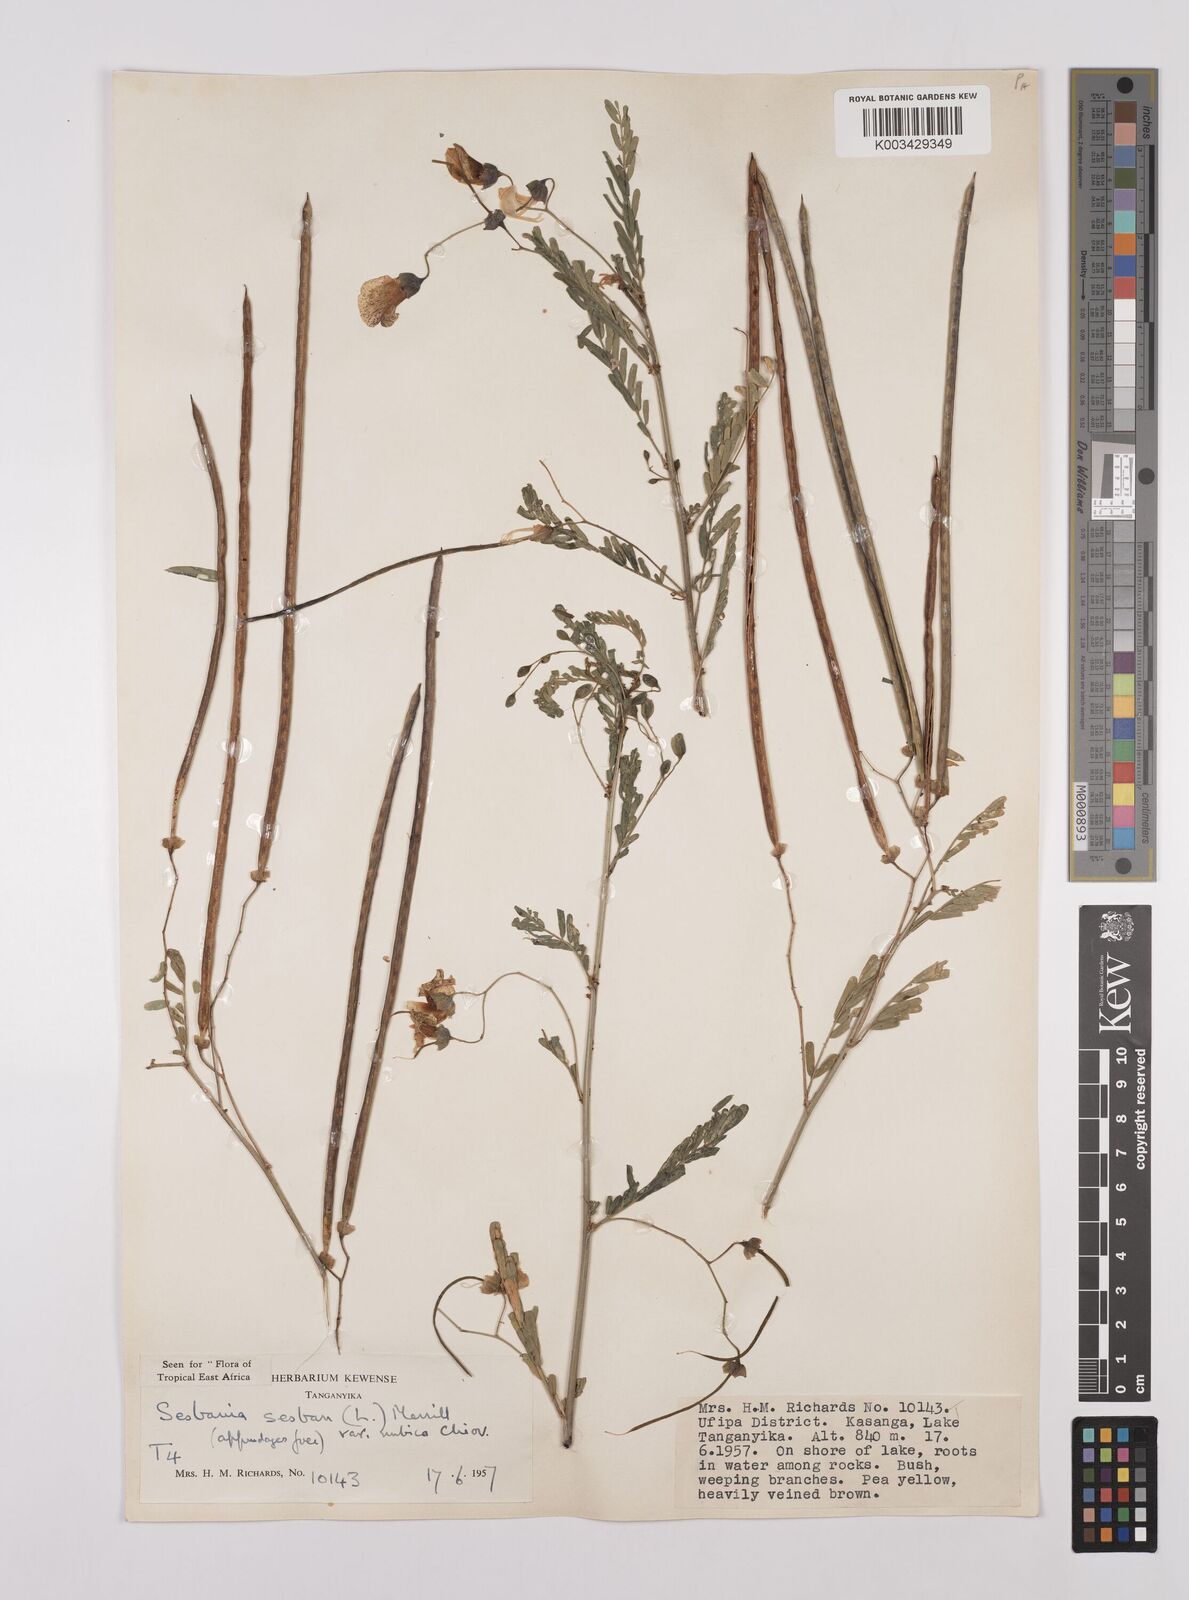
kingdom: Plantae
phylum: Tracheophyta
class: Magnoliopsida
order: Fabales
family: Fabaceae
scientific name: Fabaceae
